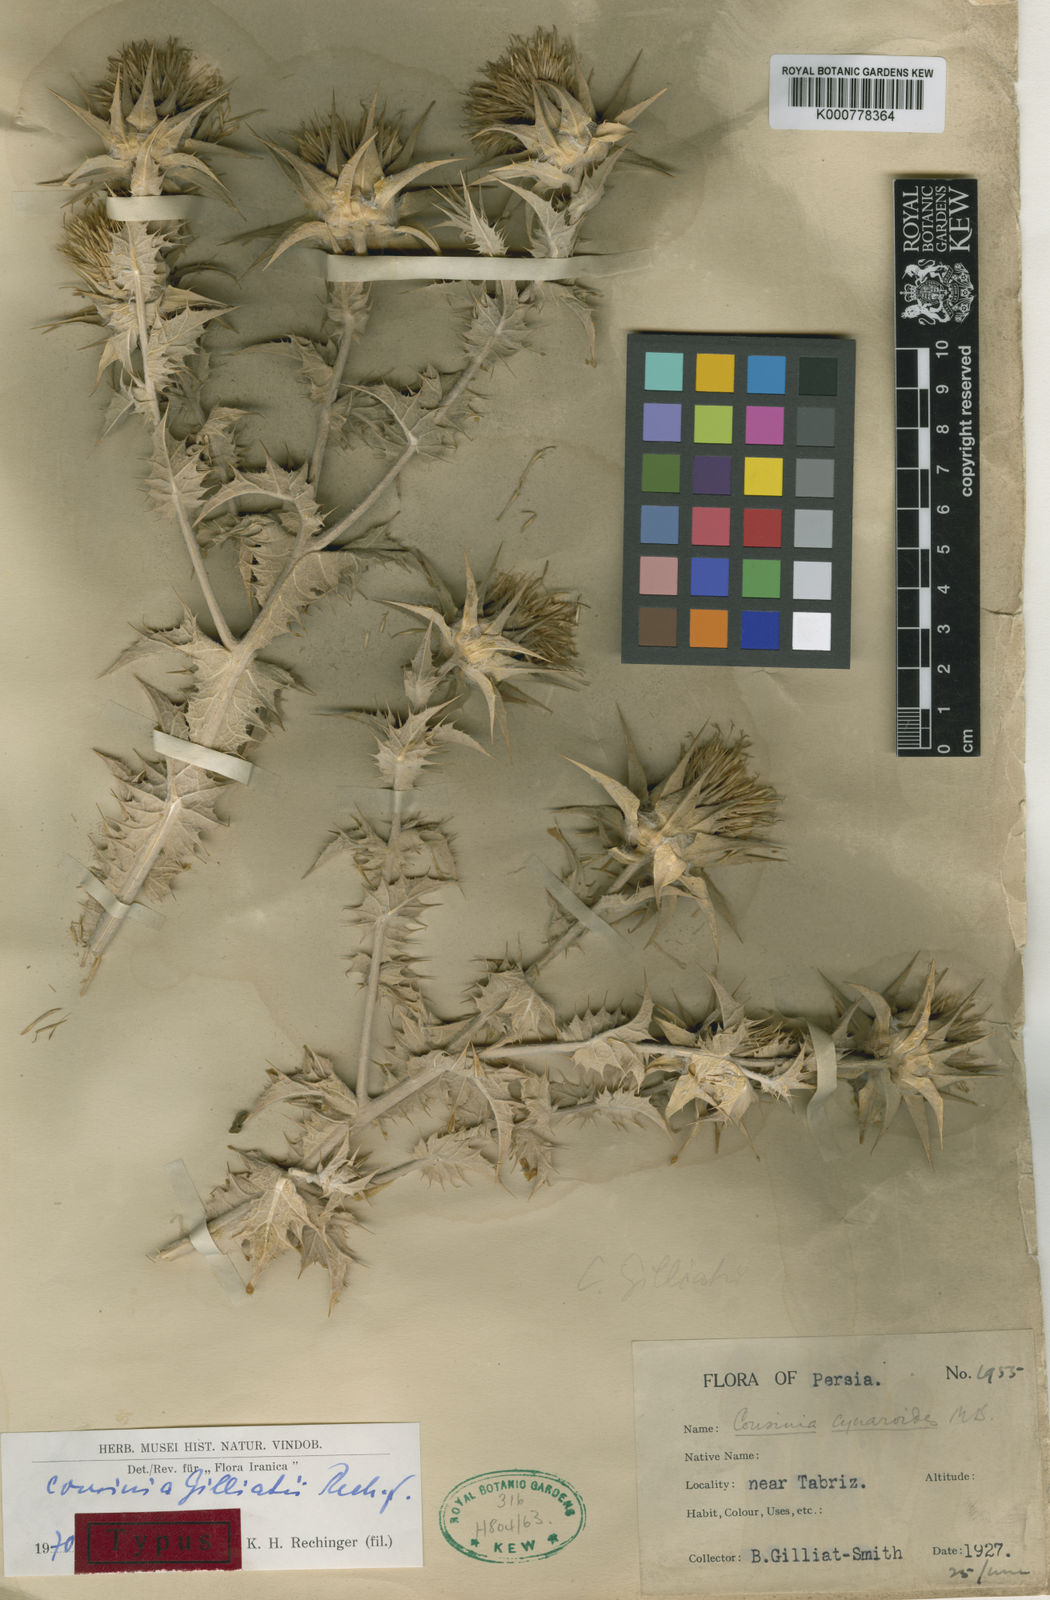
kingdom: Plantae
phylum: Tracheophyta
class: Magnoliopsida
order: Asterales
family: Asteraceae
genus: Cousinia
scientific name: Cousinia gilliatii
